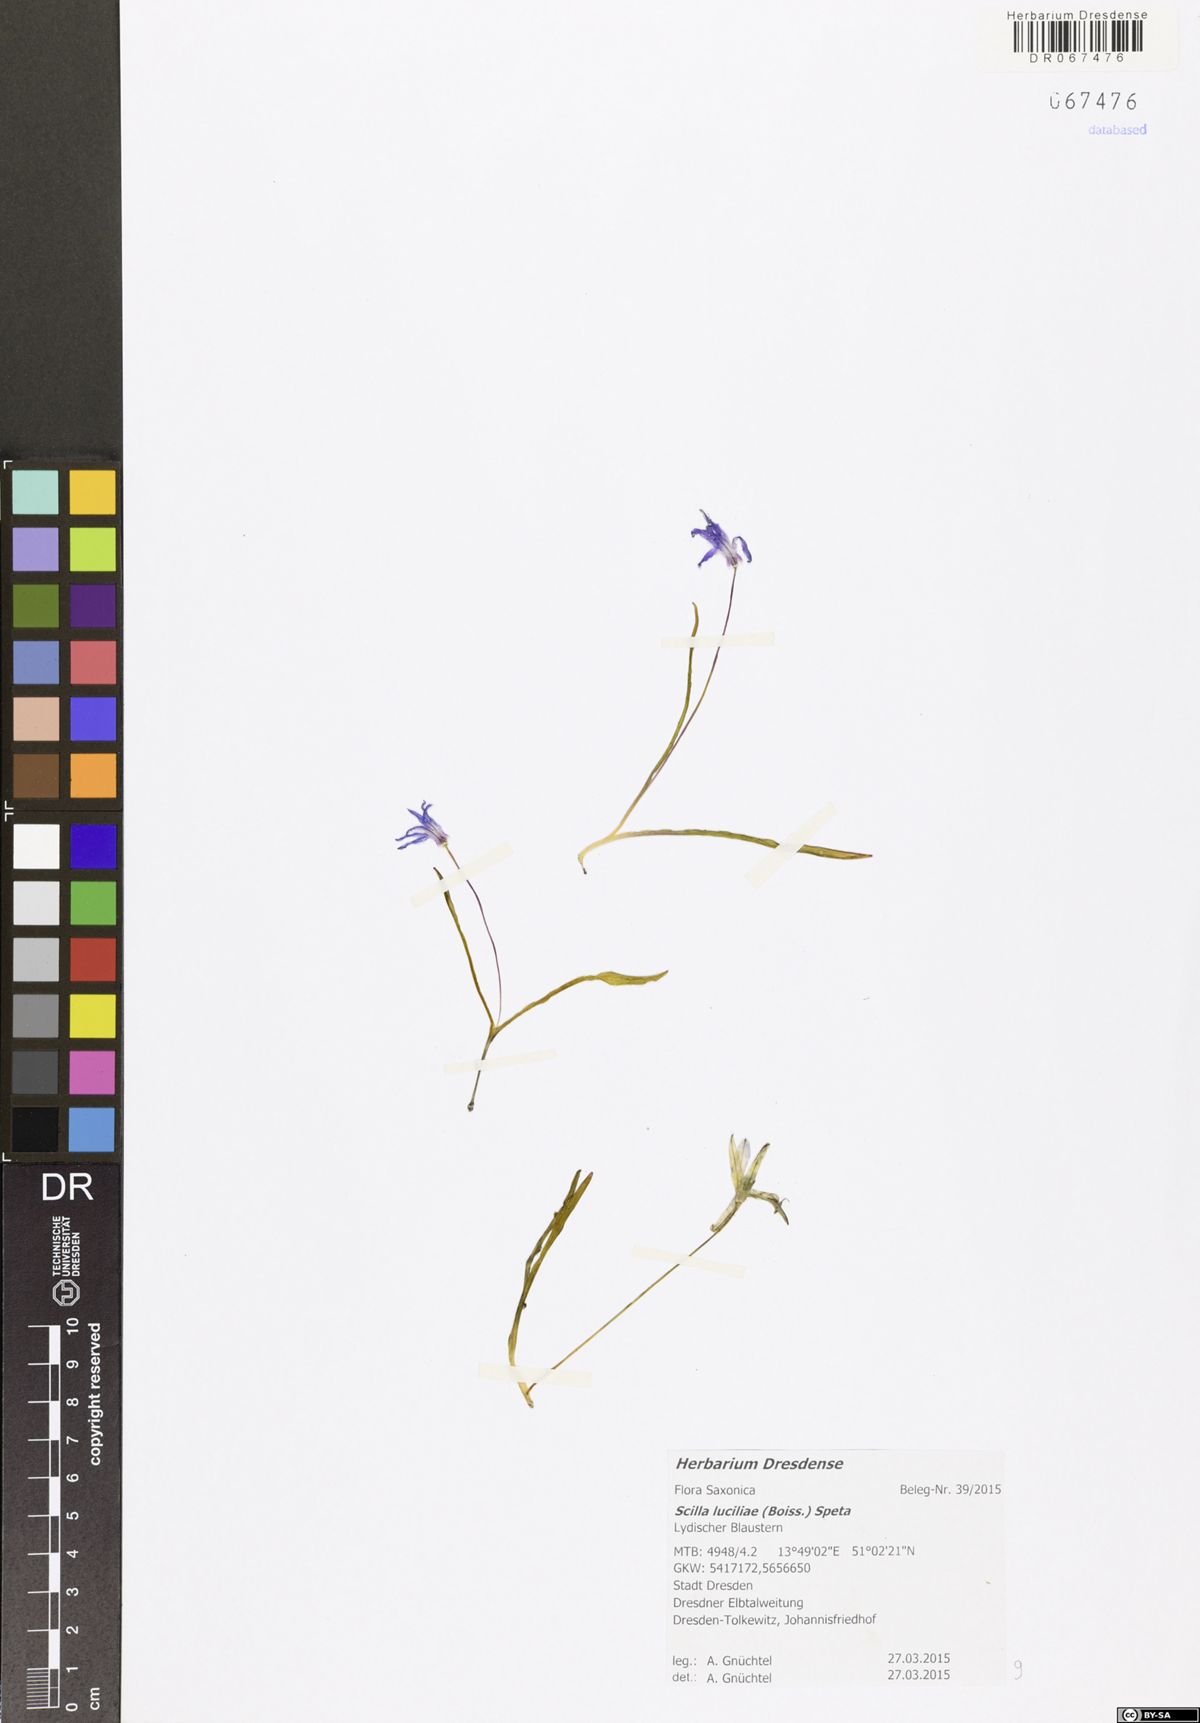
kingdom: Plantae
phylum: Tracheophyta
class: Liliopsida
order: Asparagales
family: Asparagaceae
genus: Scilla
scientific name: Scilla siberica
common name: Siberian squill
